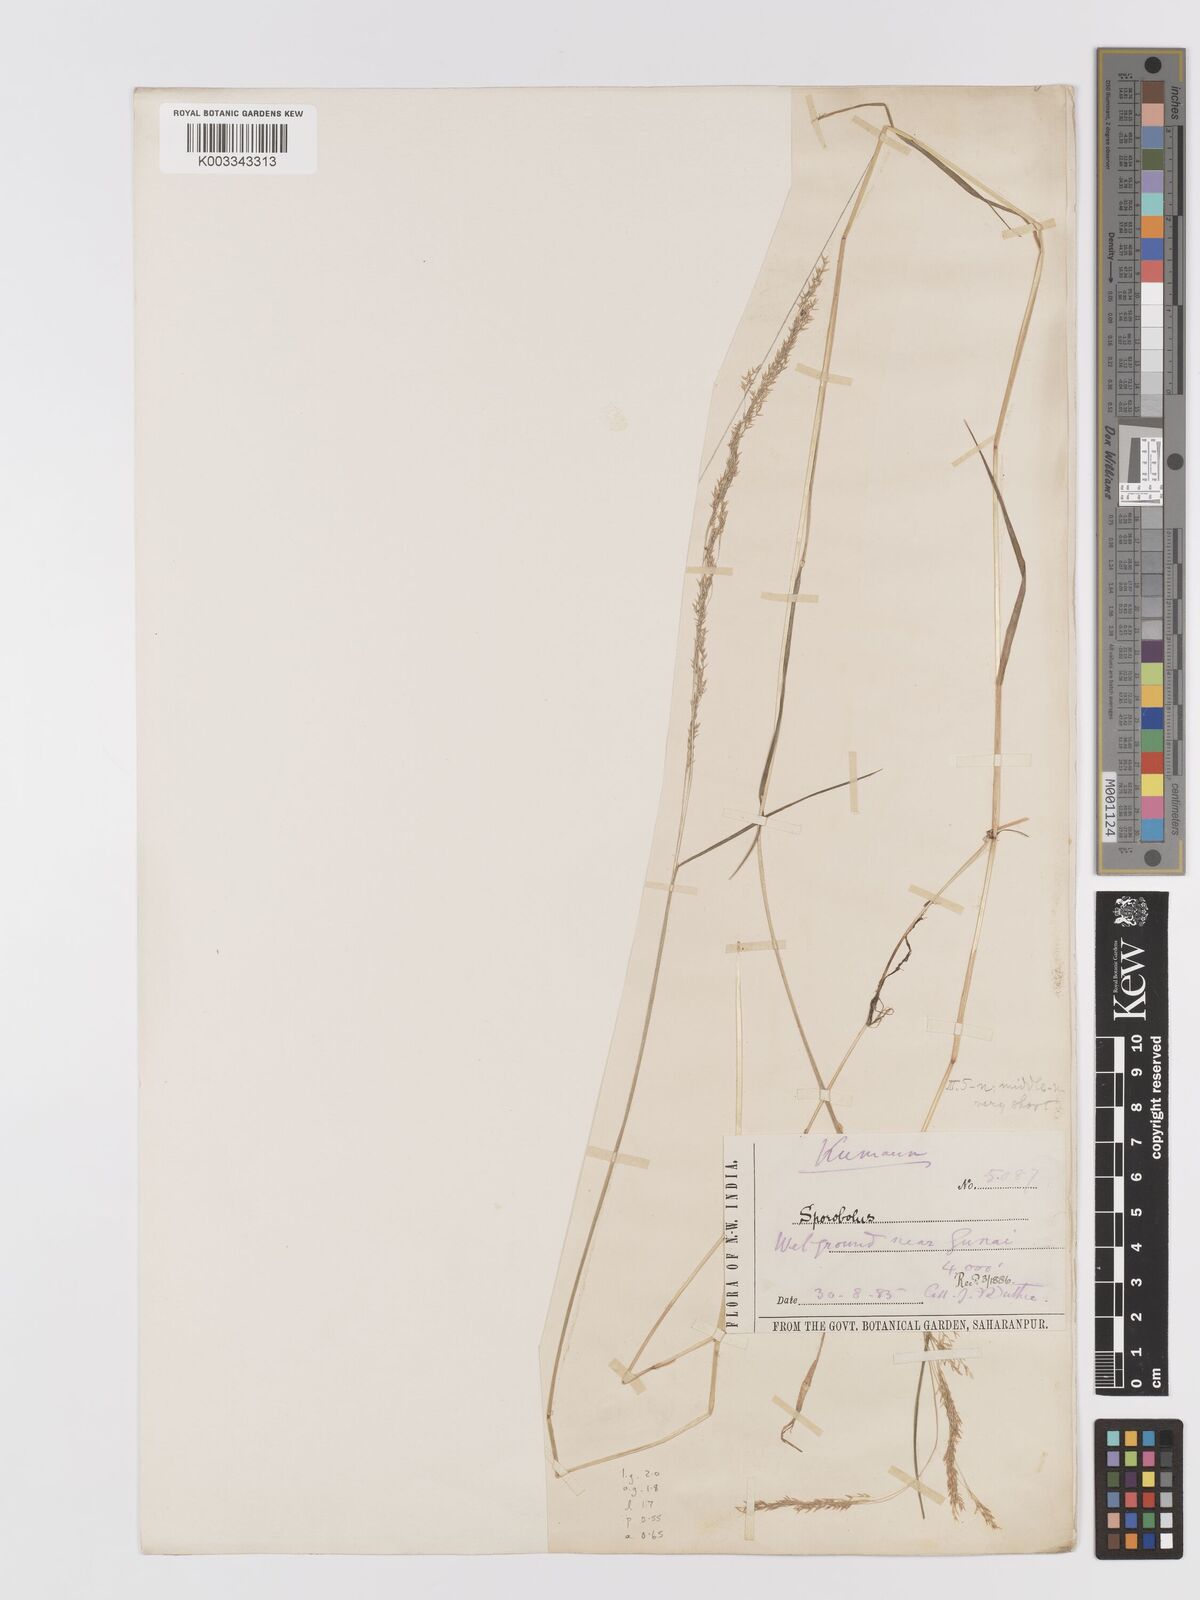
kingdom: Plantae
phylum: Tracheophyta
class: Liliopsida
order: Poales
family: Poaceae
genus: Agrostis
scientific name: Agrostis micrantha
